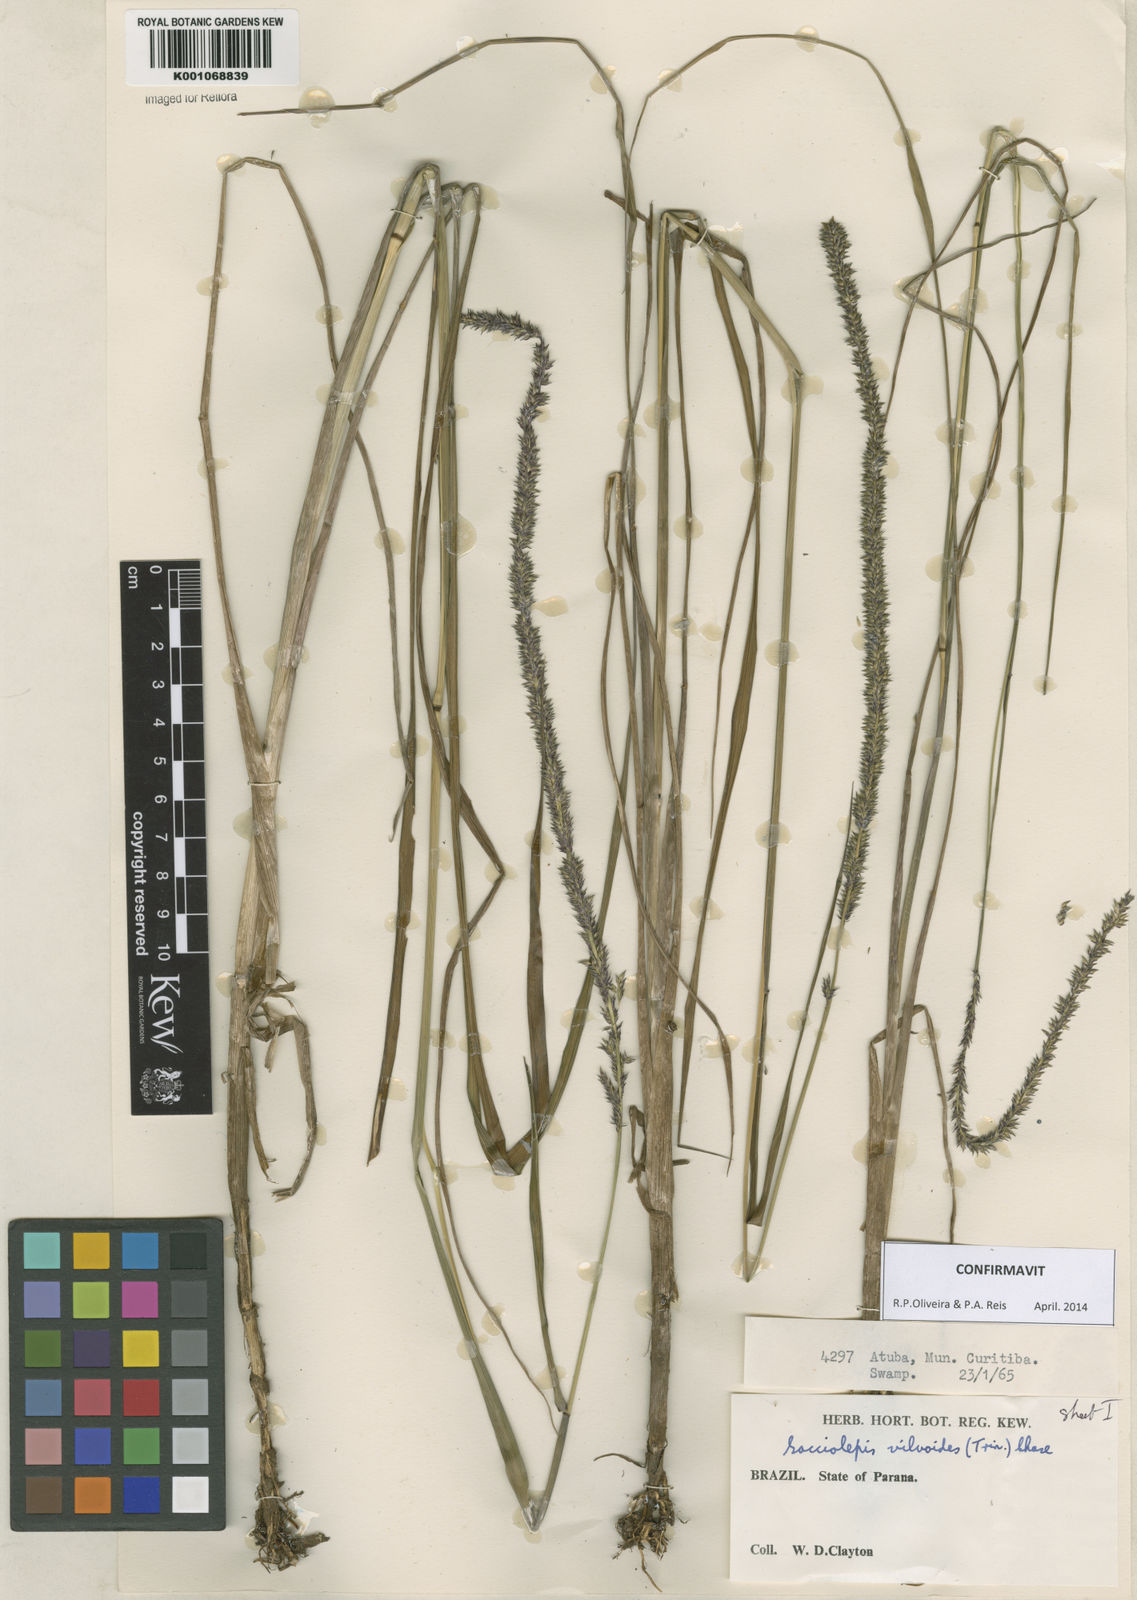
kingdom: Plantae
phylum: Tracheophyta
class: Liliopsida
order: Poales
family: Poaceae
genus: Sacciolepis
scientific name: Sacciolepis vilvoides
